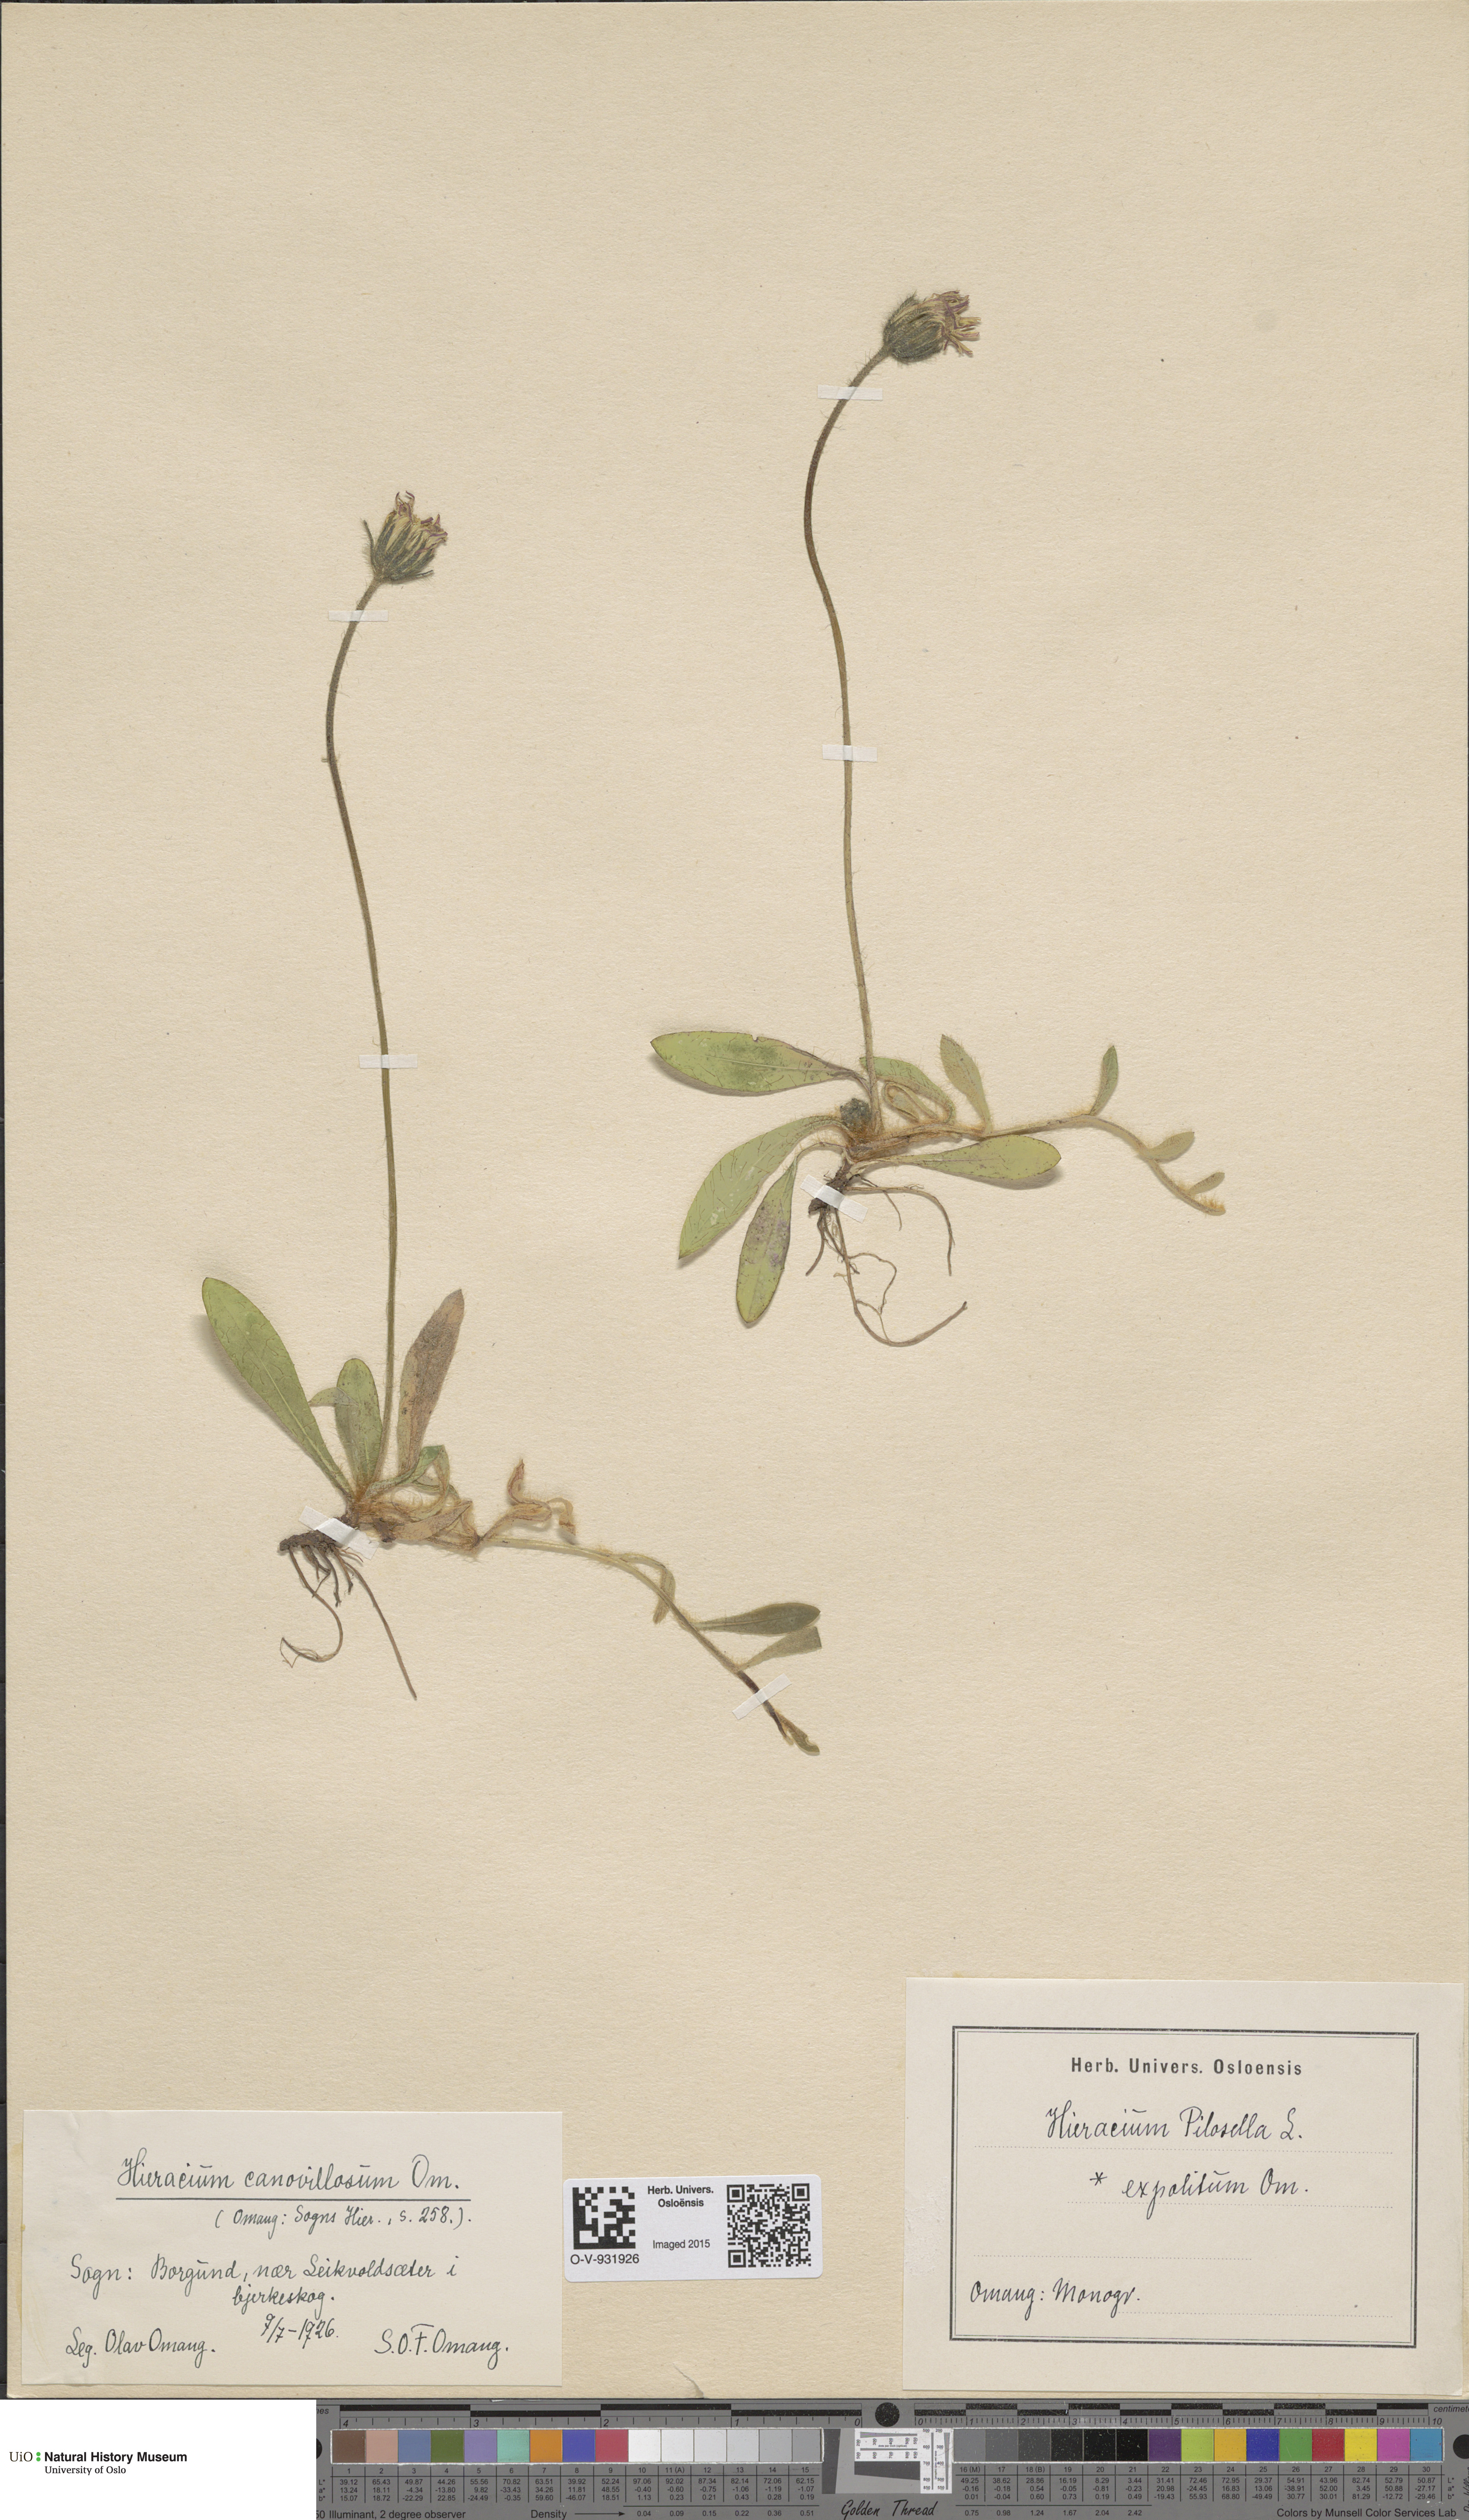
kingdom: Plantae
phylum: Tracheophyta
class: Magnoliopsida
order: Asterales
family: Asteraceae
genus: Pilosella
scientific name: Pilosella officinarum
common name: Mouse-ear hawkweed
